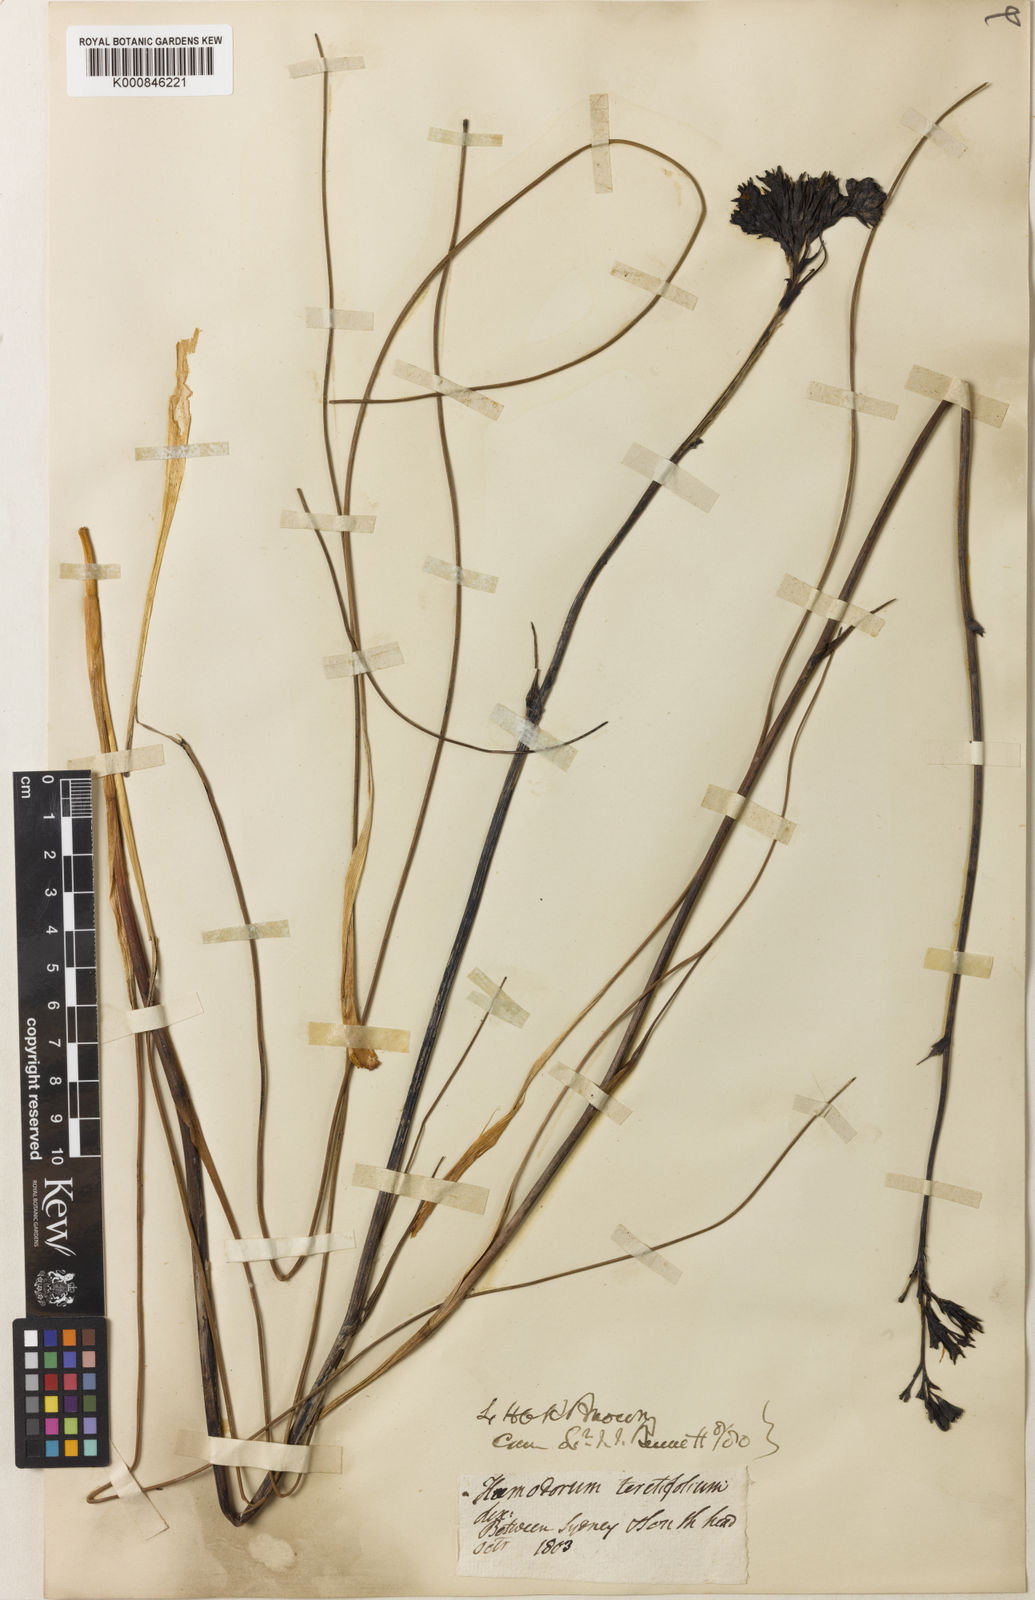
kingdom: Plantae
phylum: Tracheophyta
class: Liliopsida
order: Commelinales
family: Haemodoraceae
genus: Haemodorum
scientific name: Haemodorum corymbosum
